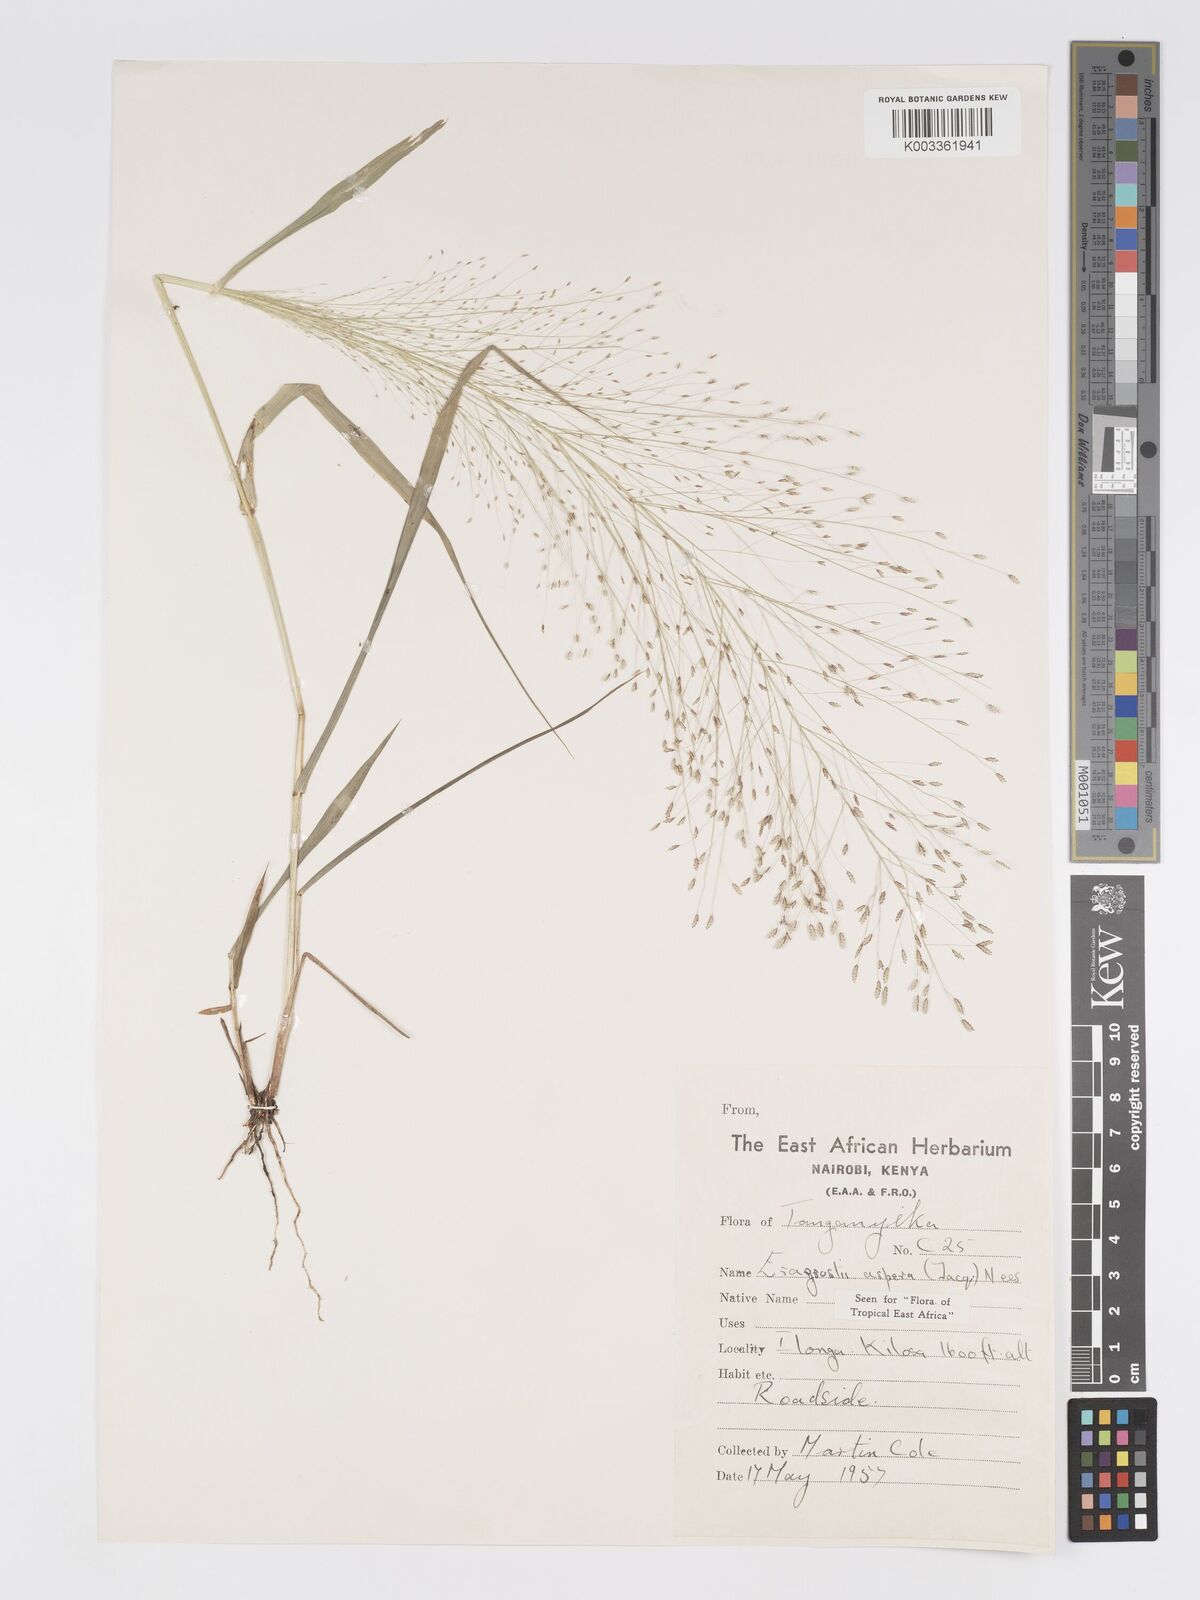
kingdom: Plantae
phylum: Tracheophyta
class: Liliopsida
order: Poales
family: Poaceae
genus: Eragrostis
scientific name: Eragrostis aspera
